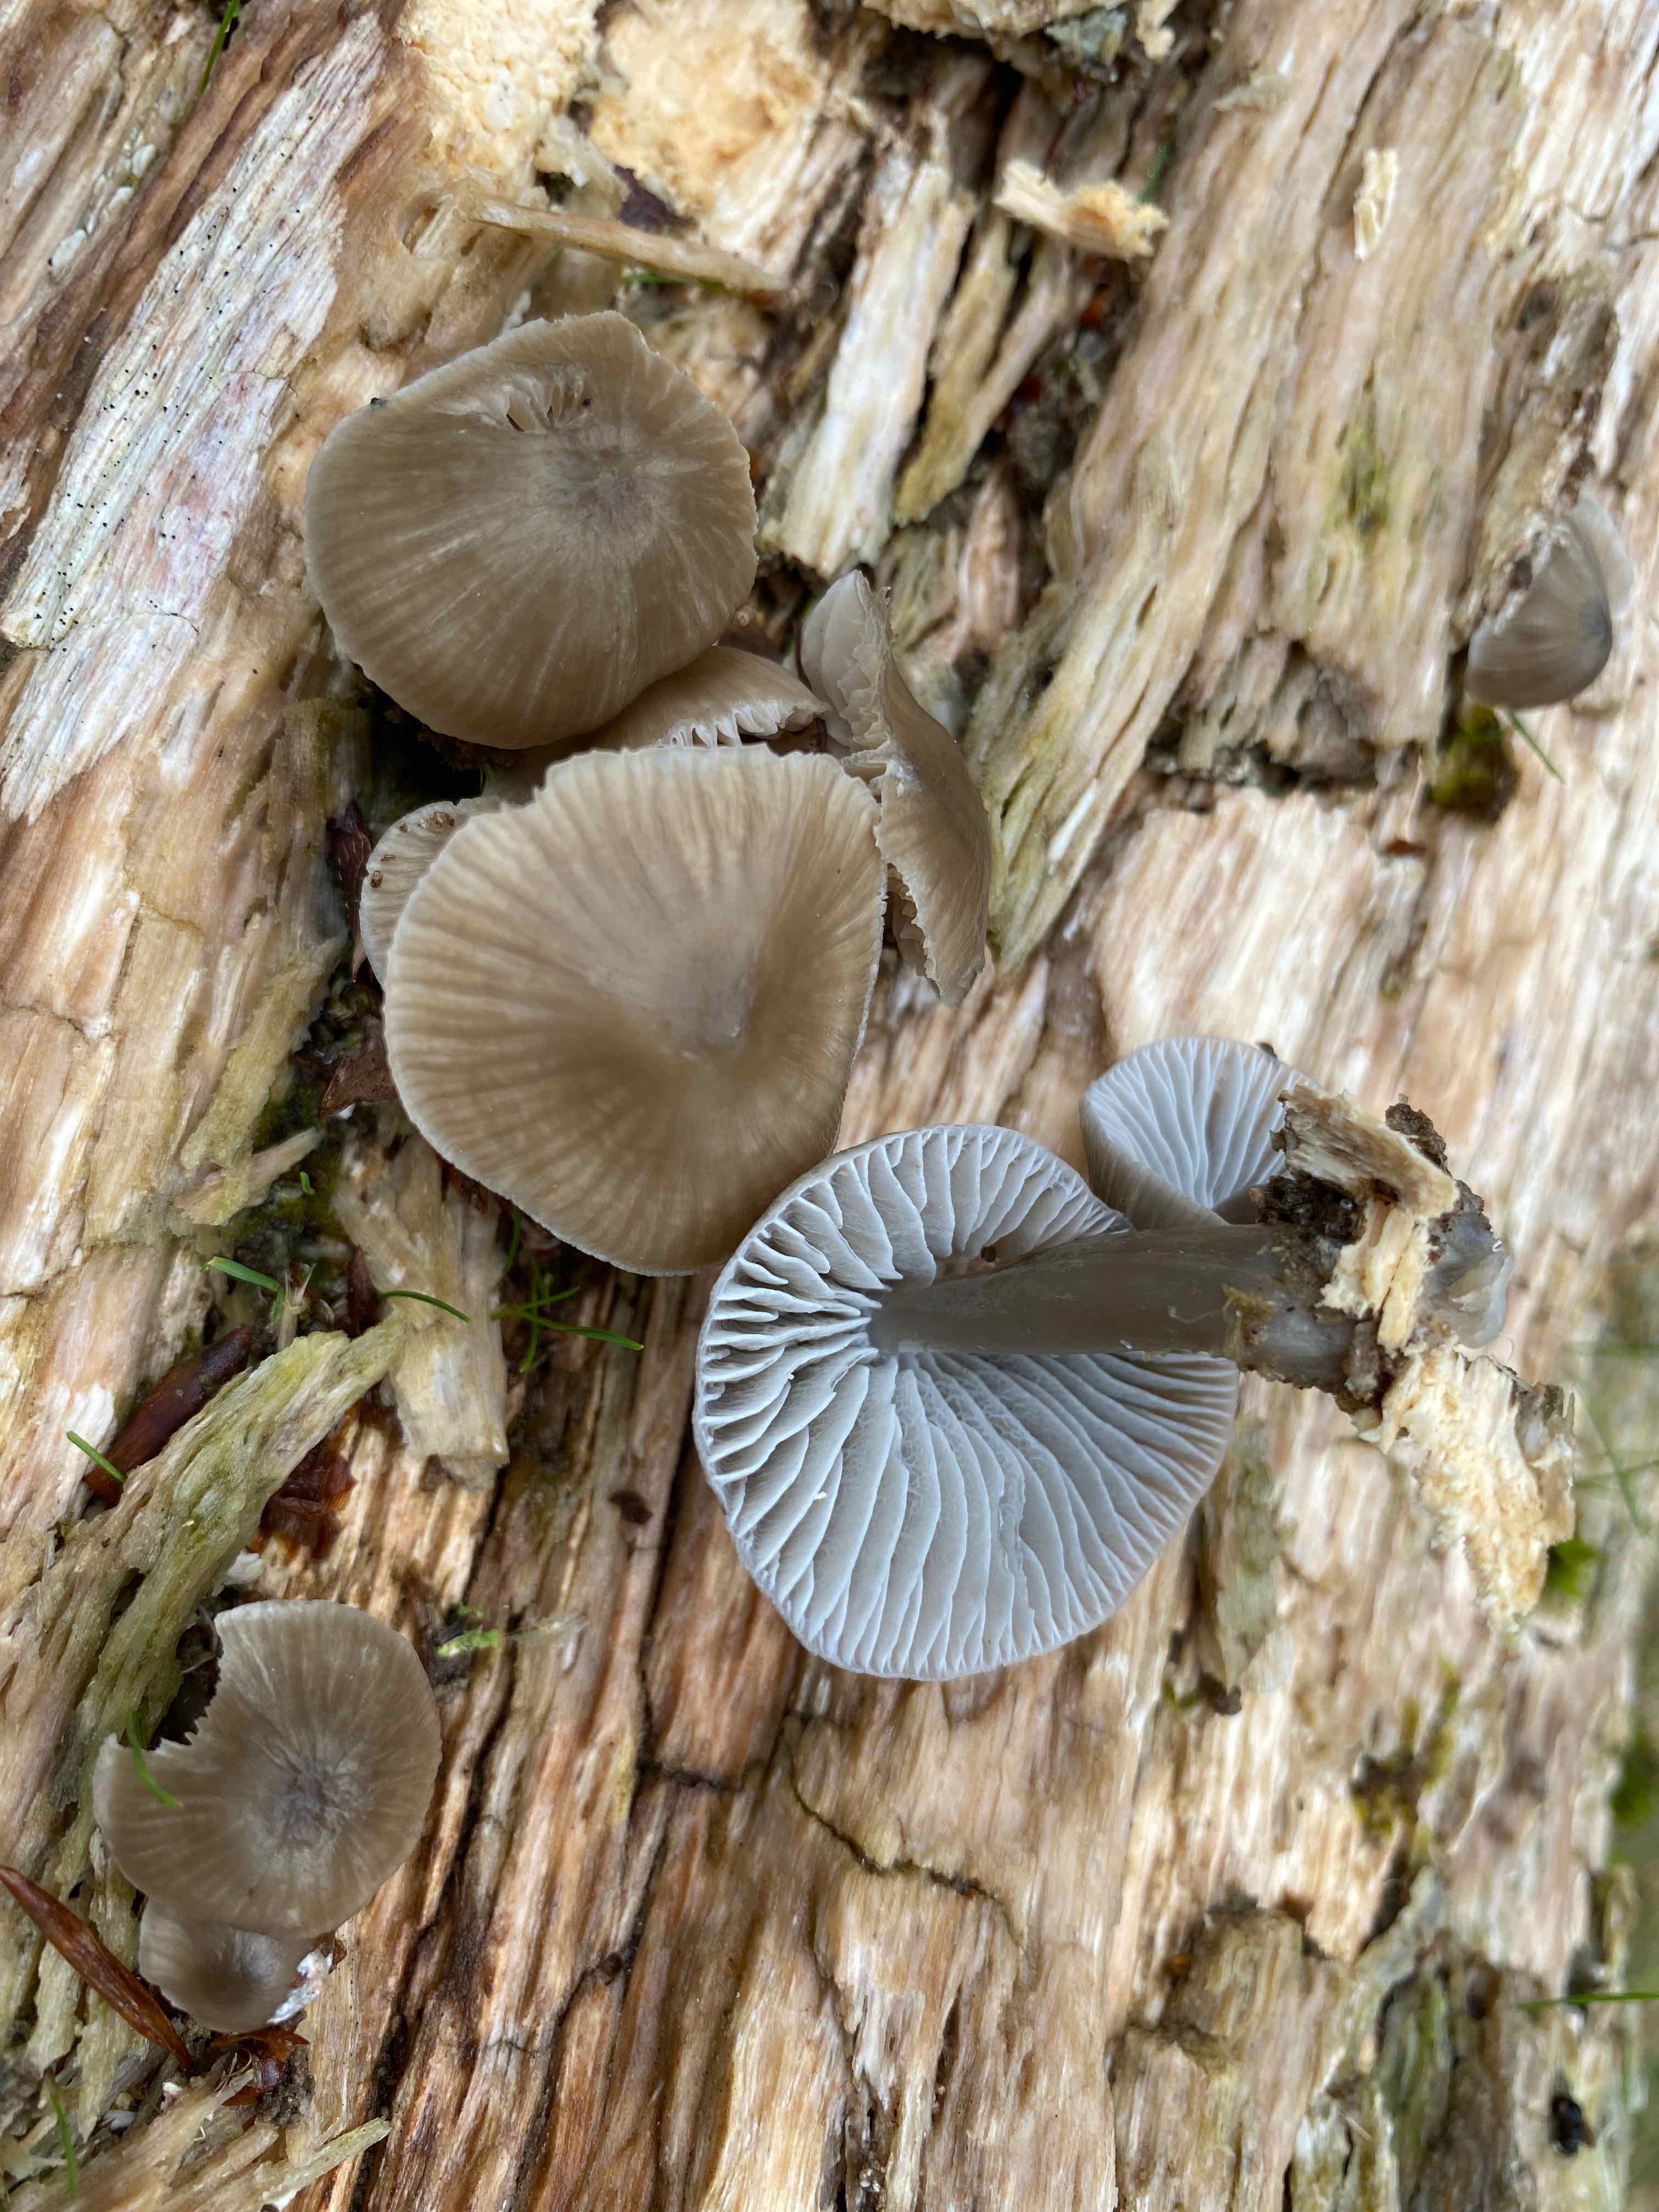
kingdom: Fungi
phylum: Basidiomycota
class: Agaricomycetes
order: Agaricales
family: Mycenaceae
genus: Mycena
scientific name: Mycena galericulata
